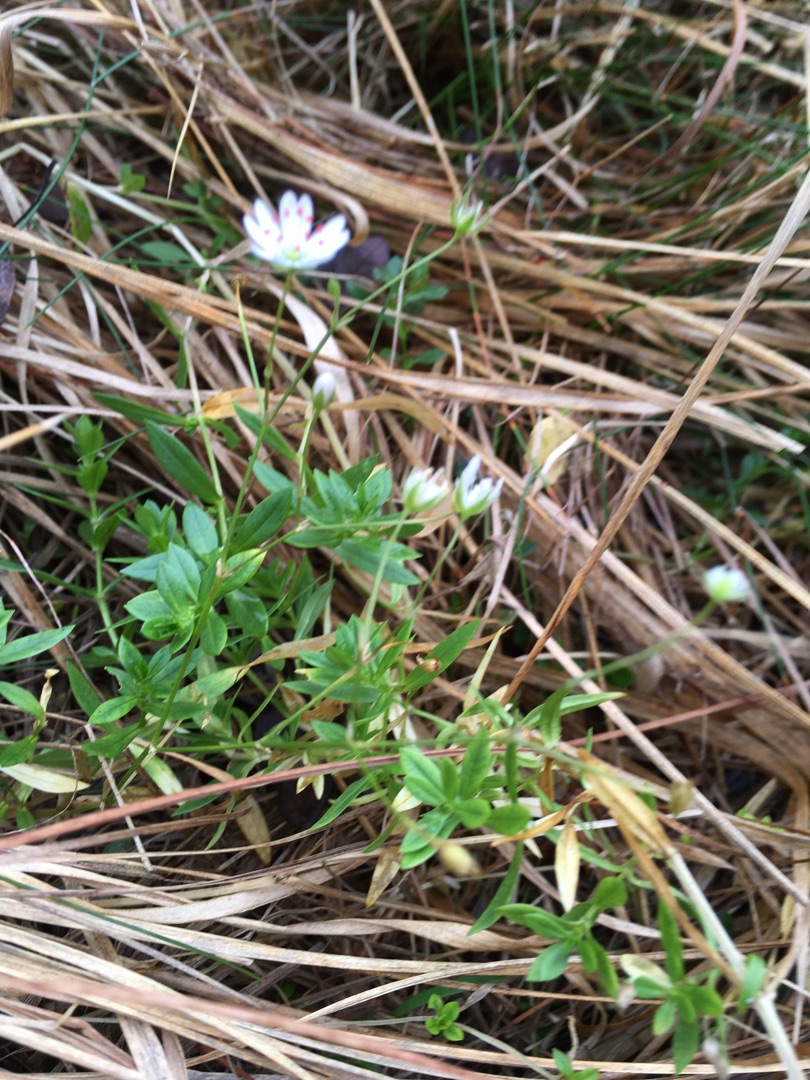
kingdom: Plantae
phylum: Tracheophyta
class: Magnoliopsida
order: Caryophyllales
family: Caryophyllaceae
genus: Stellaria
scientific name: Stellaria graminea
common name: Græsbladet fladstjerne
